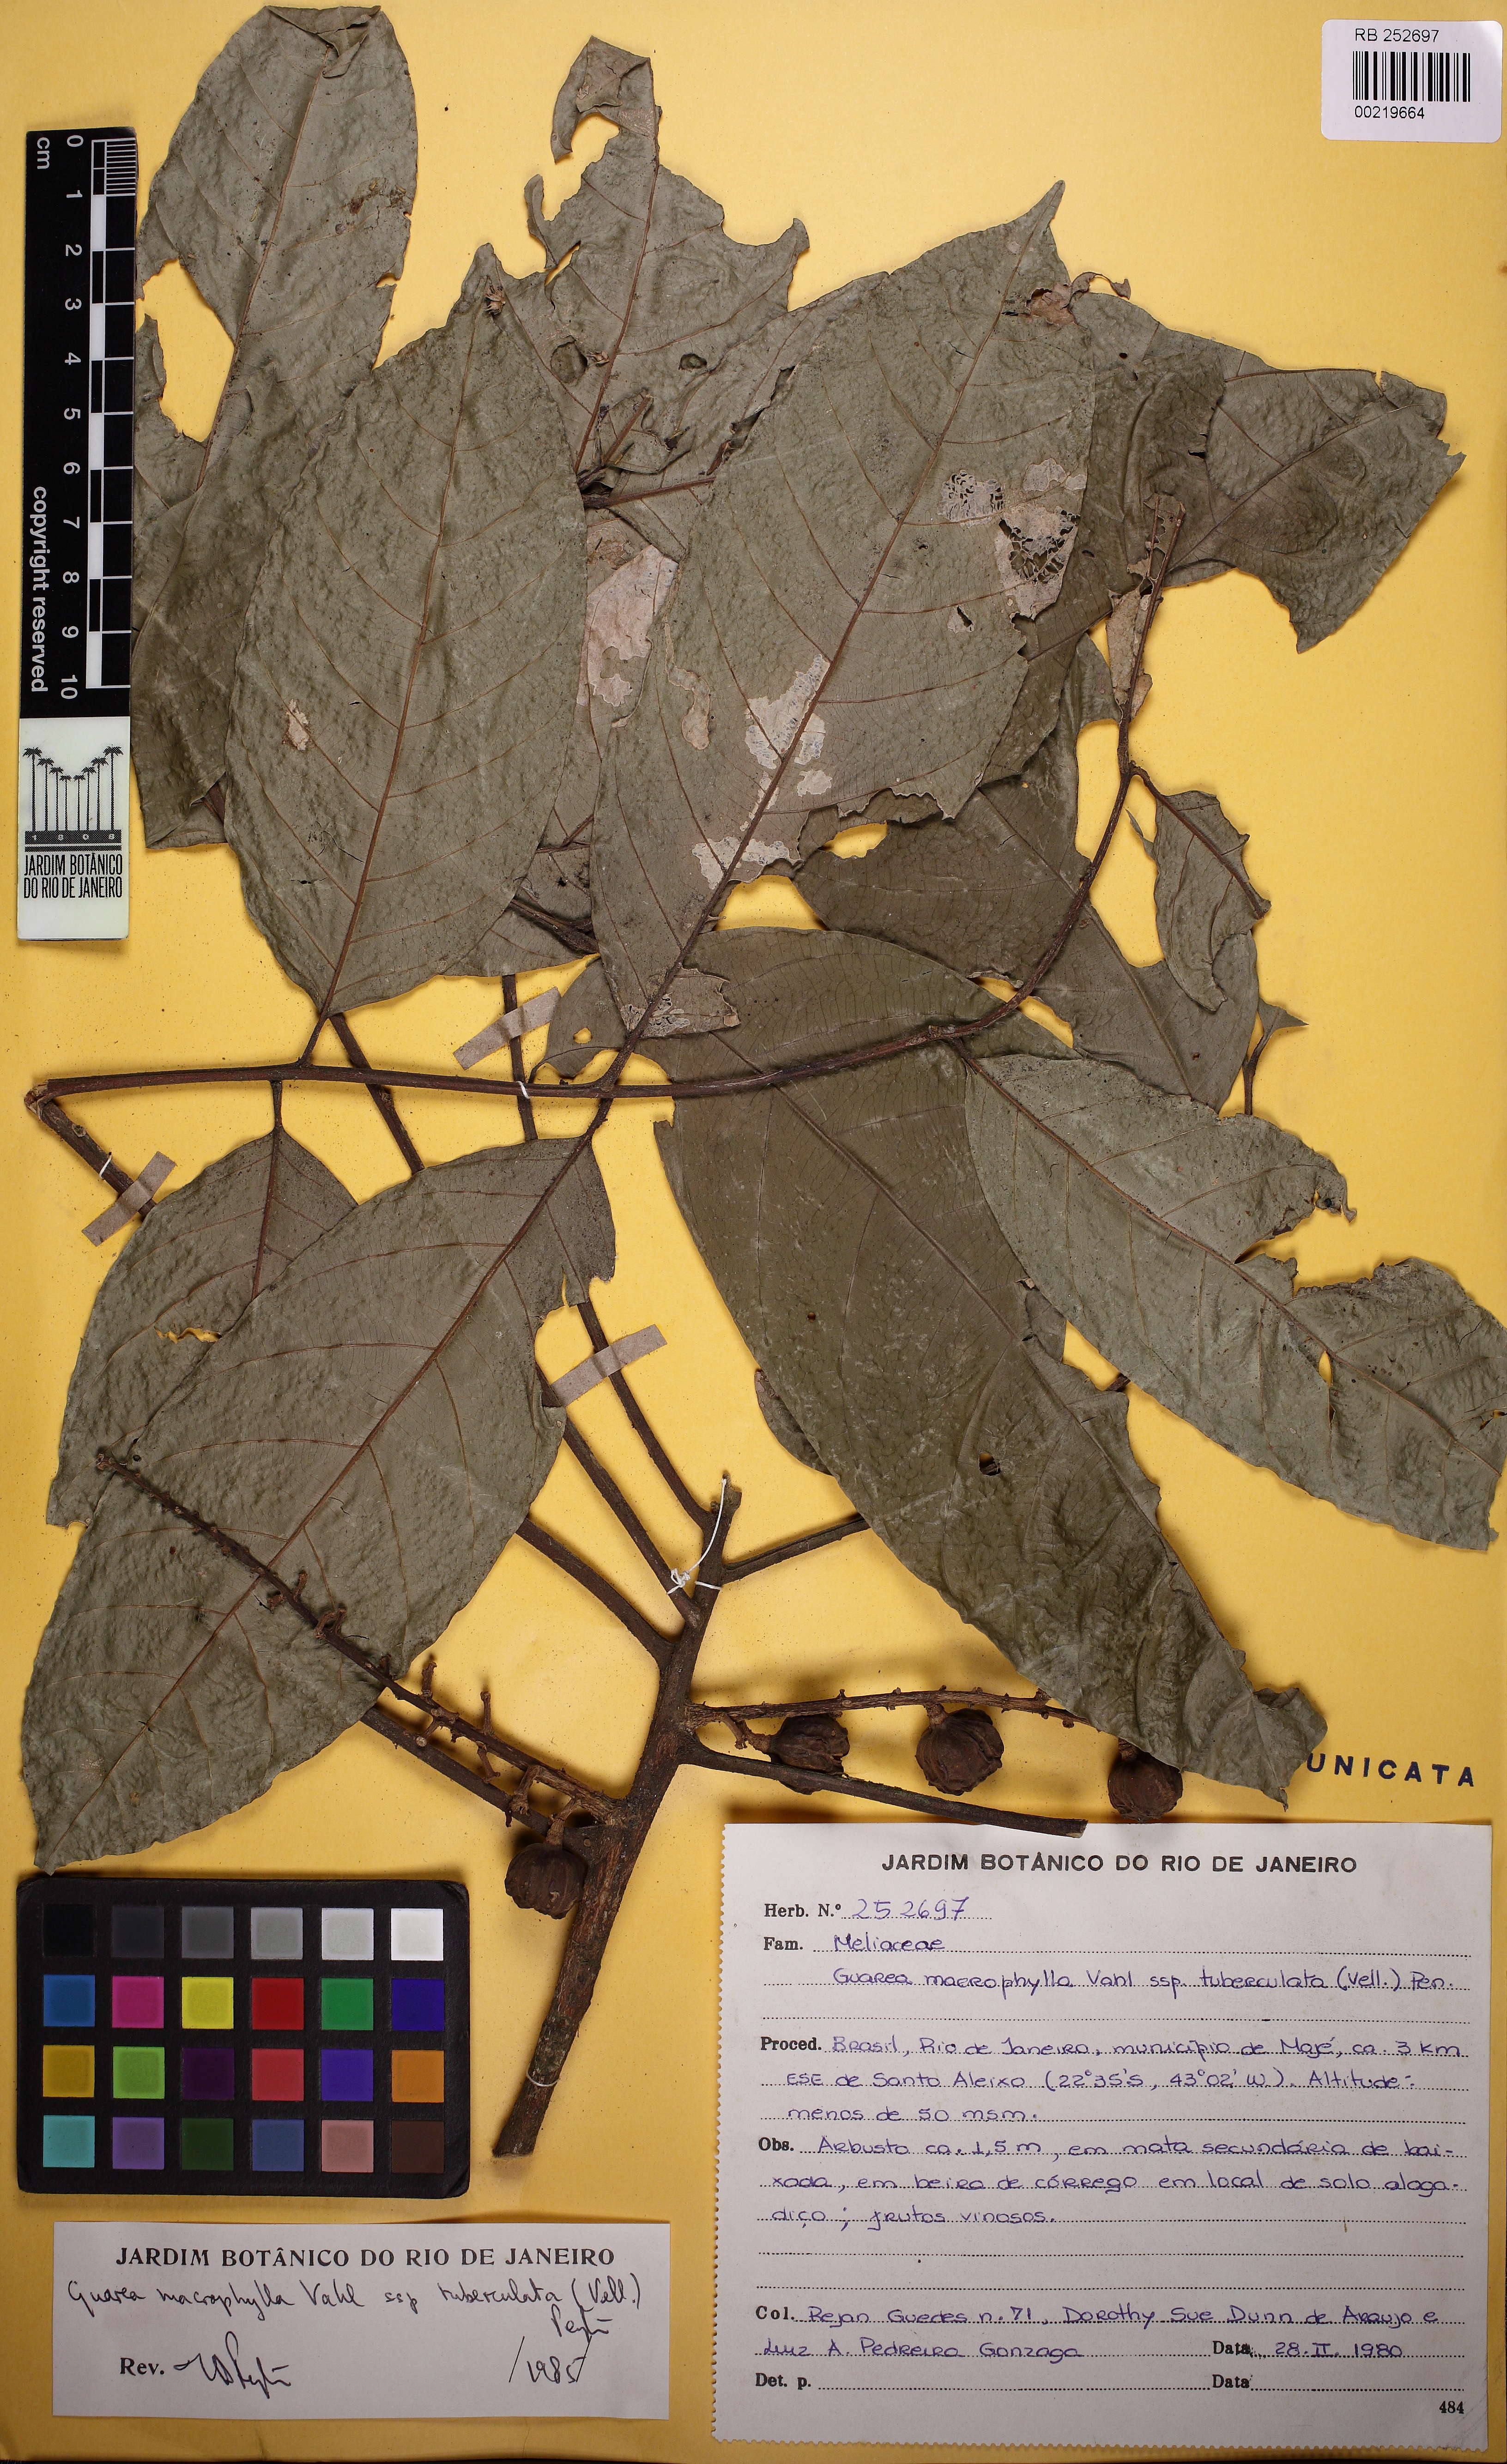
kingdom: Plantae
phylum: Tracheophyta
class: Magnoliopsida
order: Sapindales
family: Meliaceae
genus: Guarea
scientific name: Guarea macrophylla
